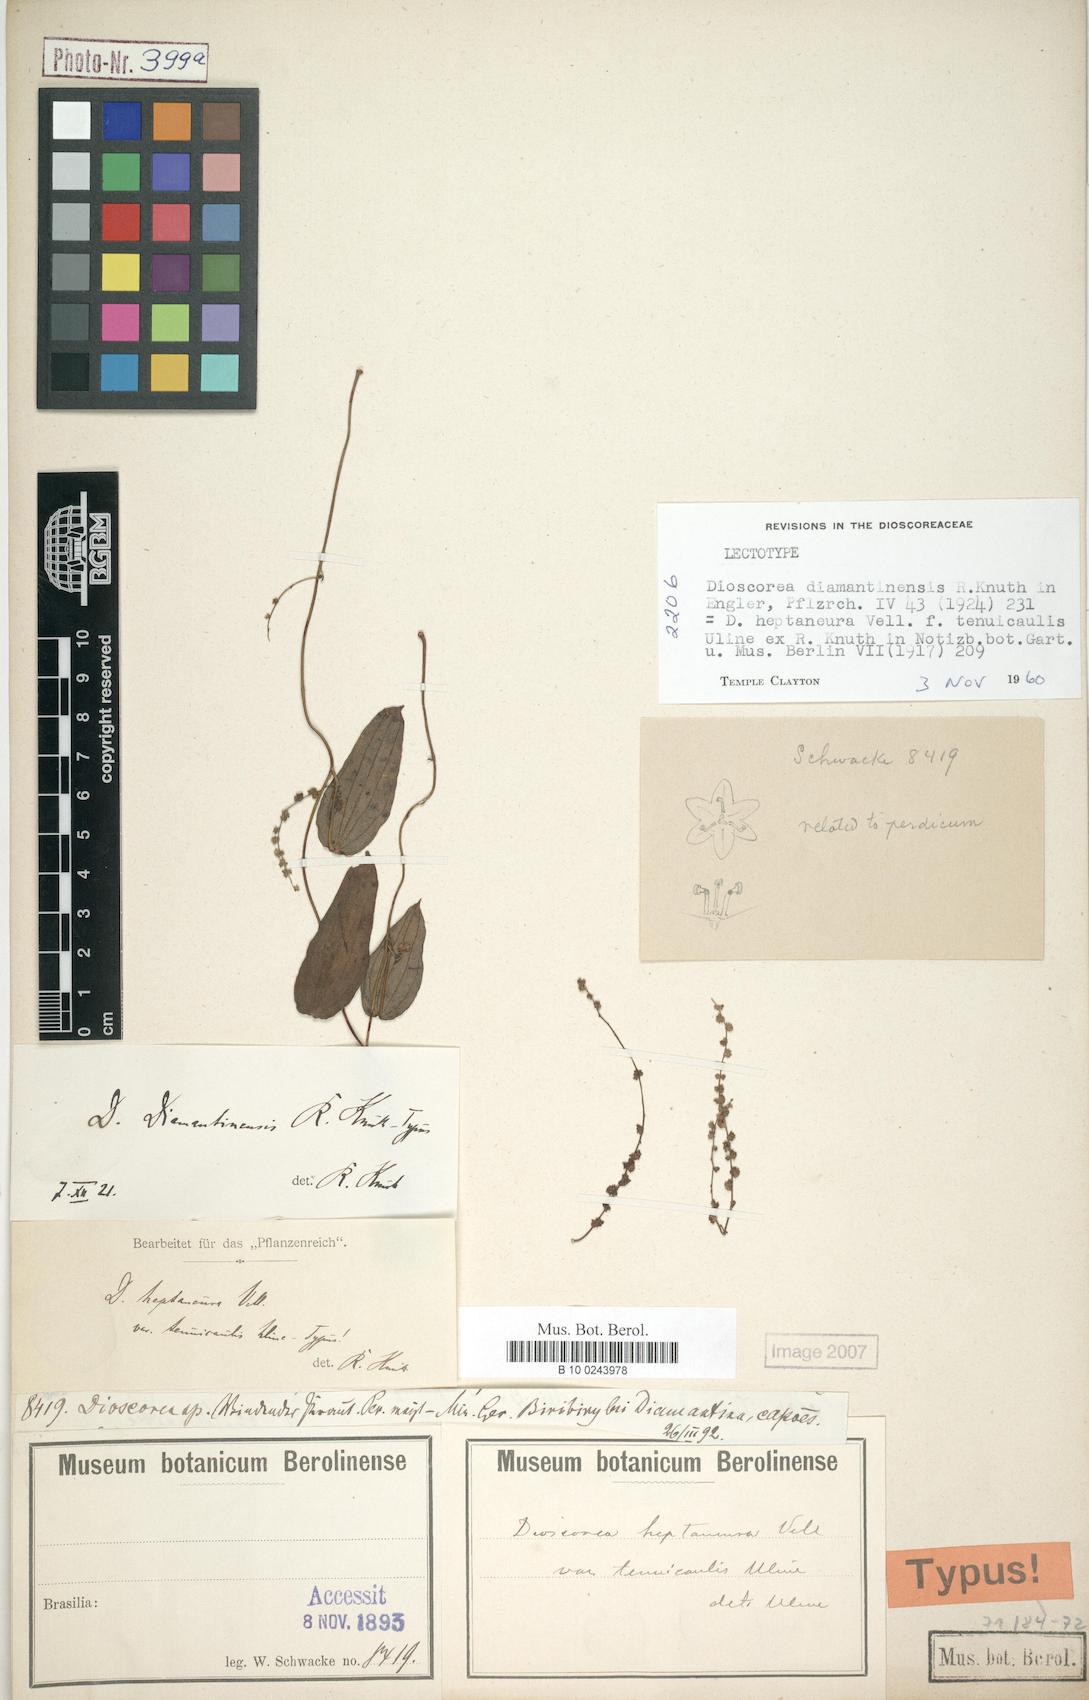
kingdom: Plantae
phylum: Tracheophyta
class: Liliopsida
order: Dioscoreales
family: Dioscoreaceae
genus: Dioscorea
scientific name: Dioscorea diamantinensis
